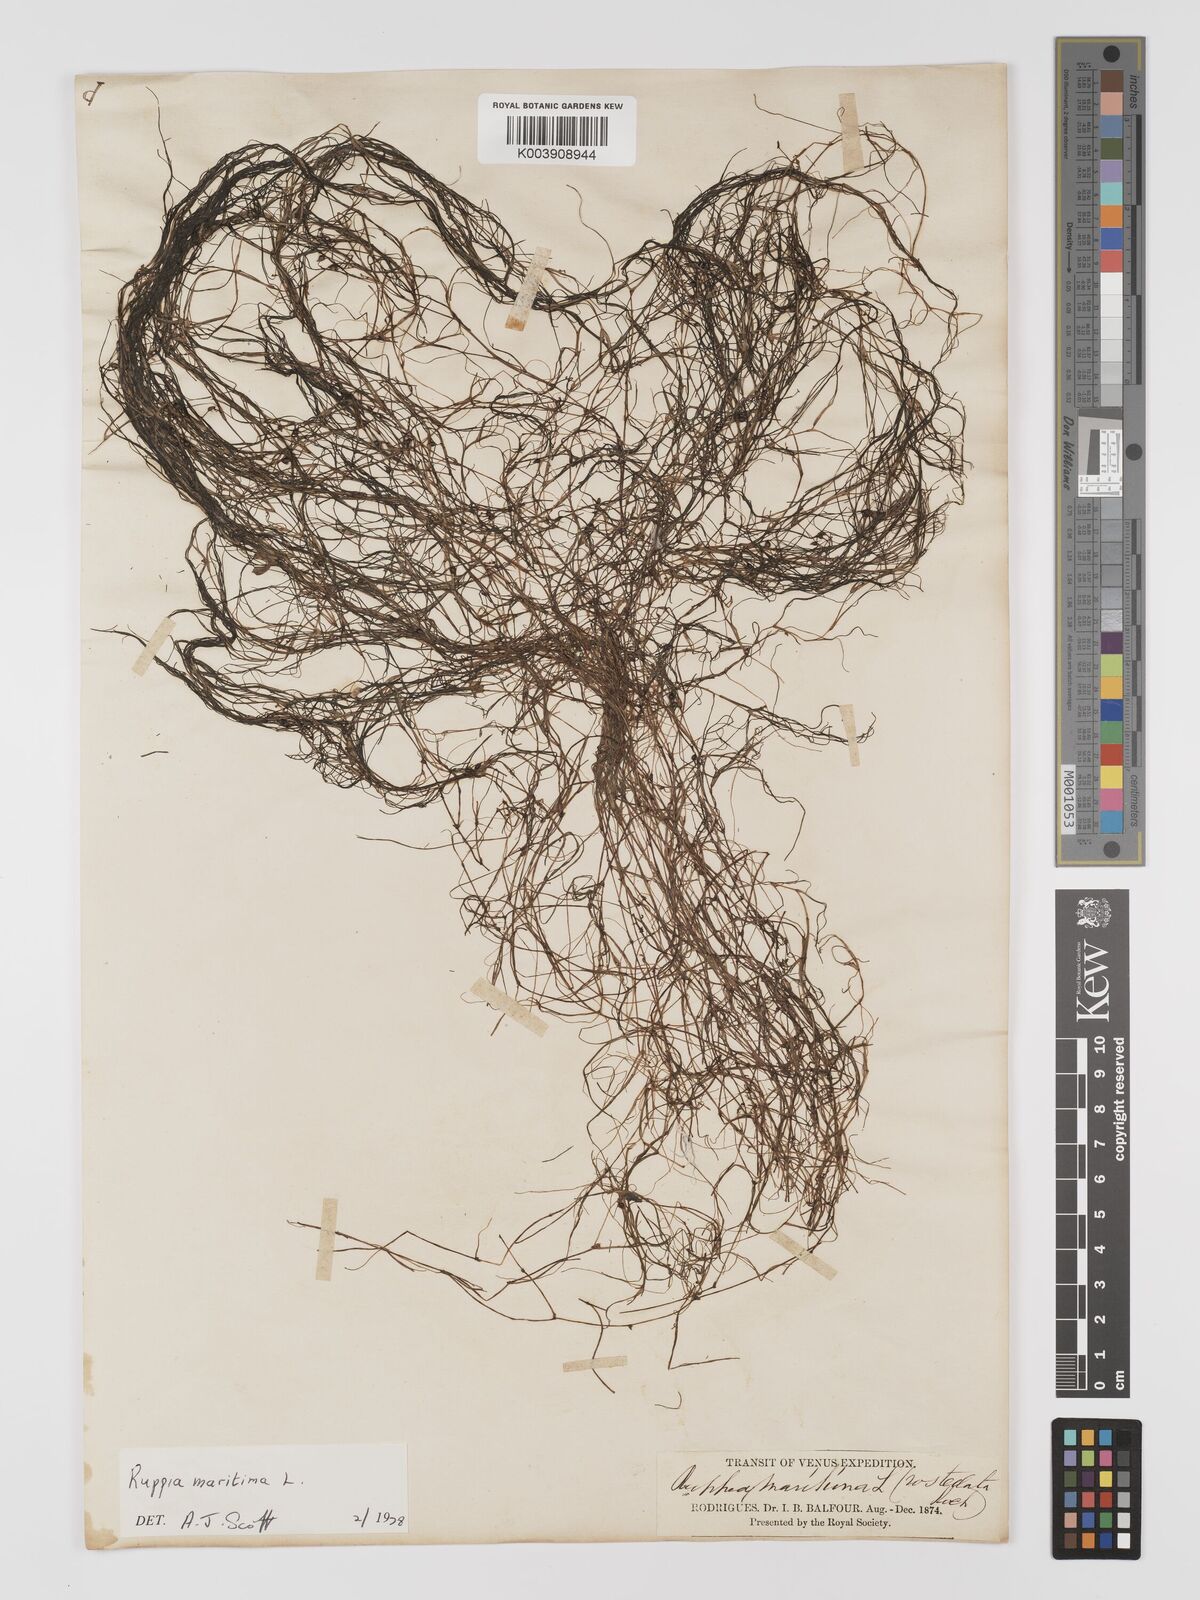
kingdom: Plantae
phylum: Tracheophyta
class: Liliopsida
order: Alismatales
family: Ruppiaceae
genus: Ruppia
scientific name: Ruppia maritima
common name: Beaked tasselweed
